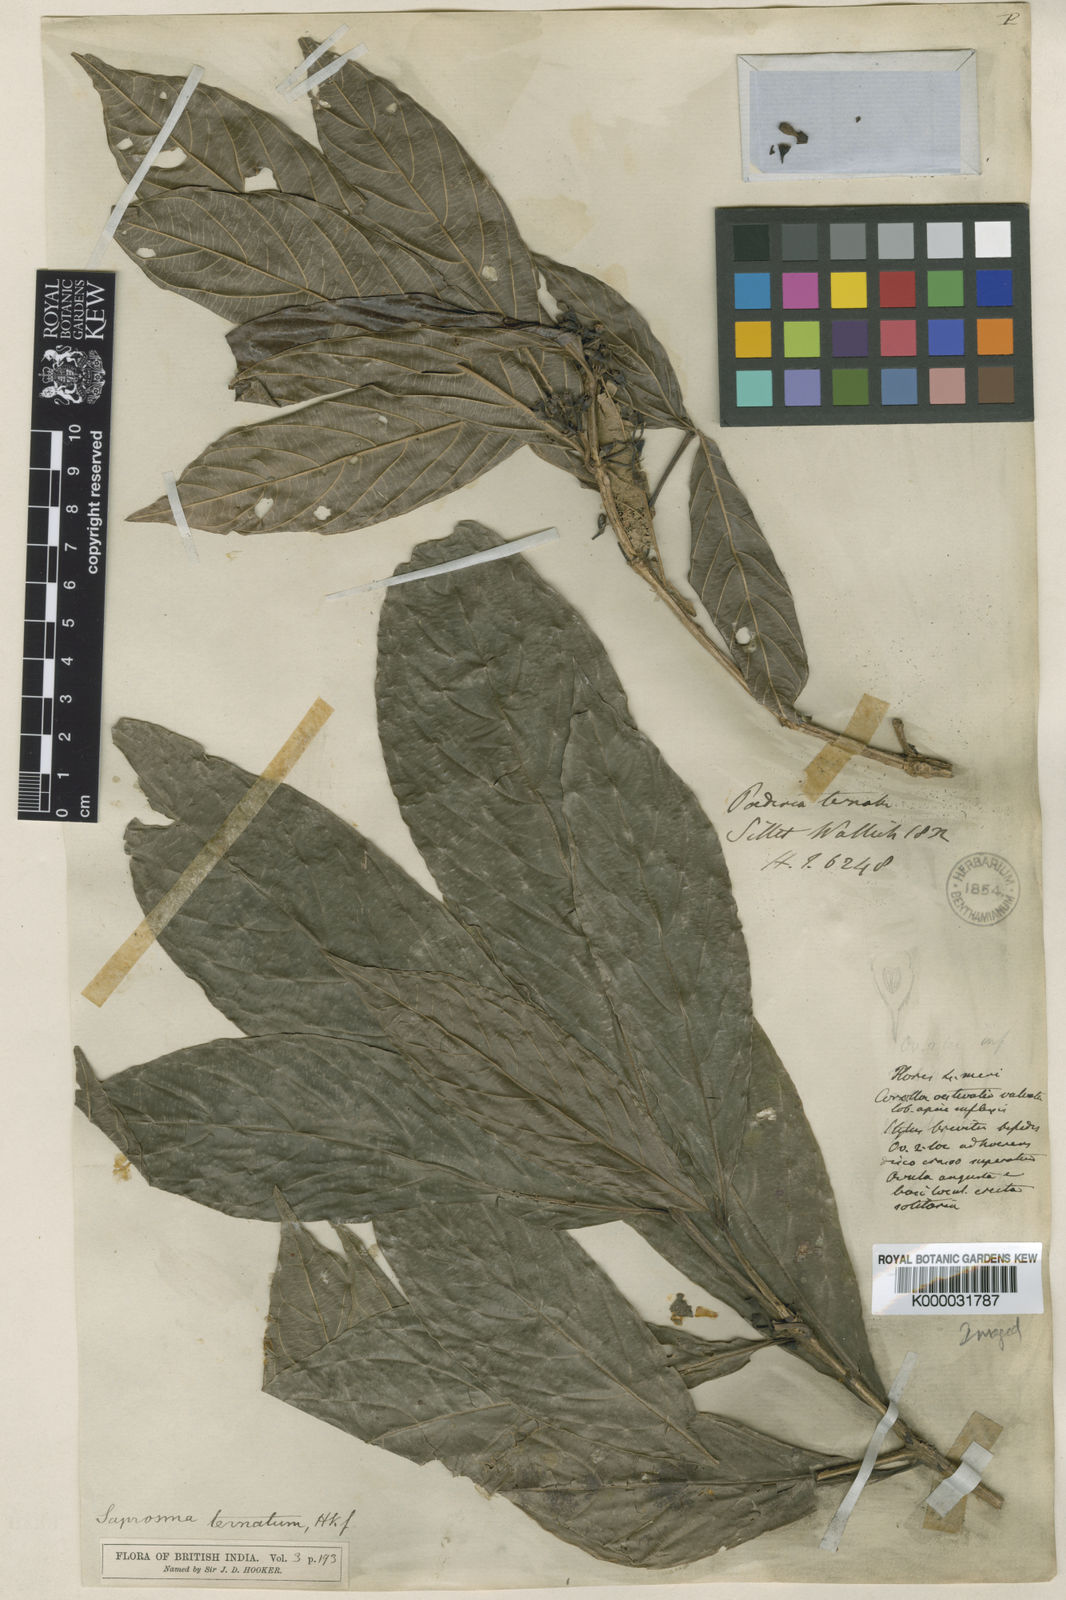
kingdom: Plantae
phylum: Tracheophyta
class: Magnoliopsida
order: Gentianales
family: Rubiaceae
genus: Saprosma
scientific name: Saprosma ternata
